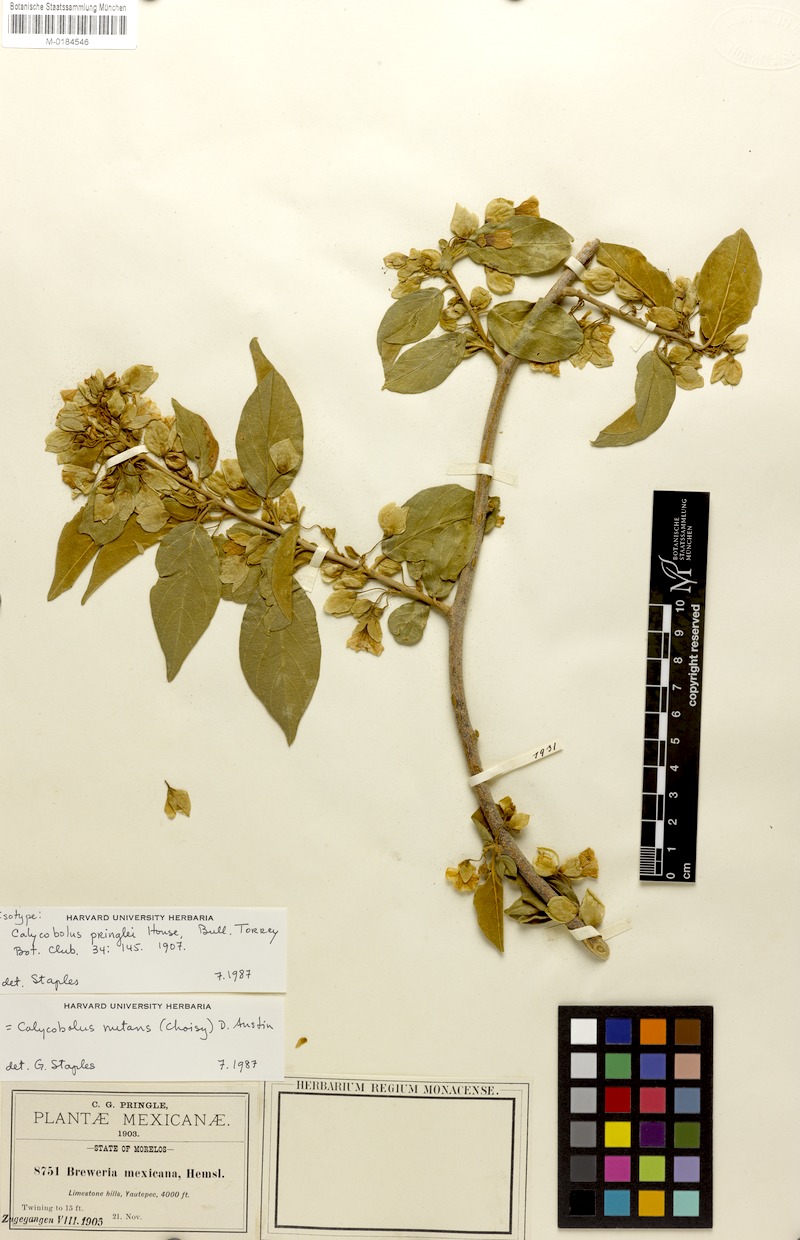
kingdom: Plantae
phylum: Tracheophyta
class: Magnoliopsida
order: Solanales
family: Convolvulaceae
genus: Calycobolus
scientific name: Calycobolus nutans
